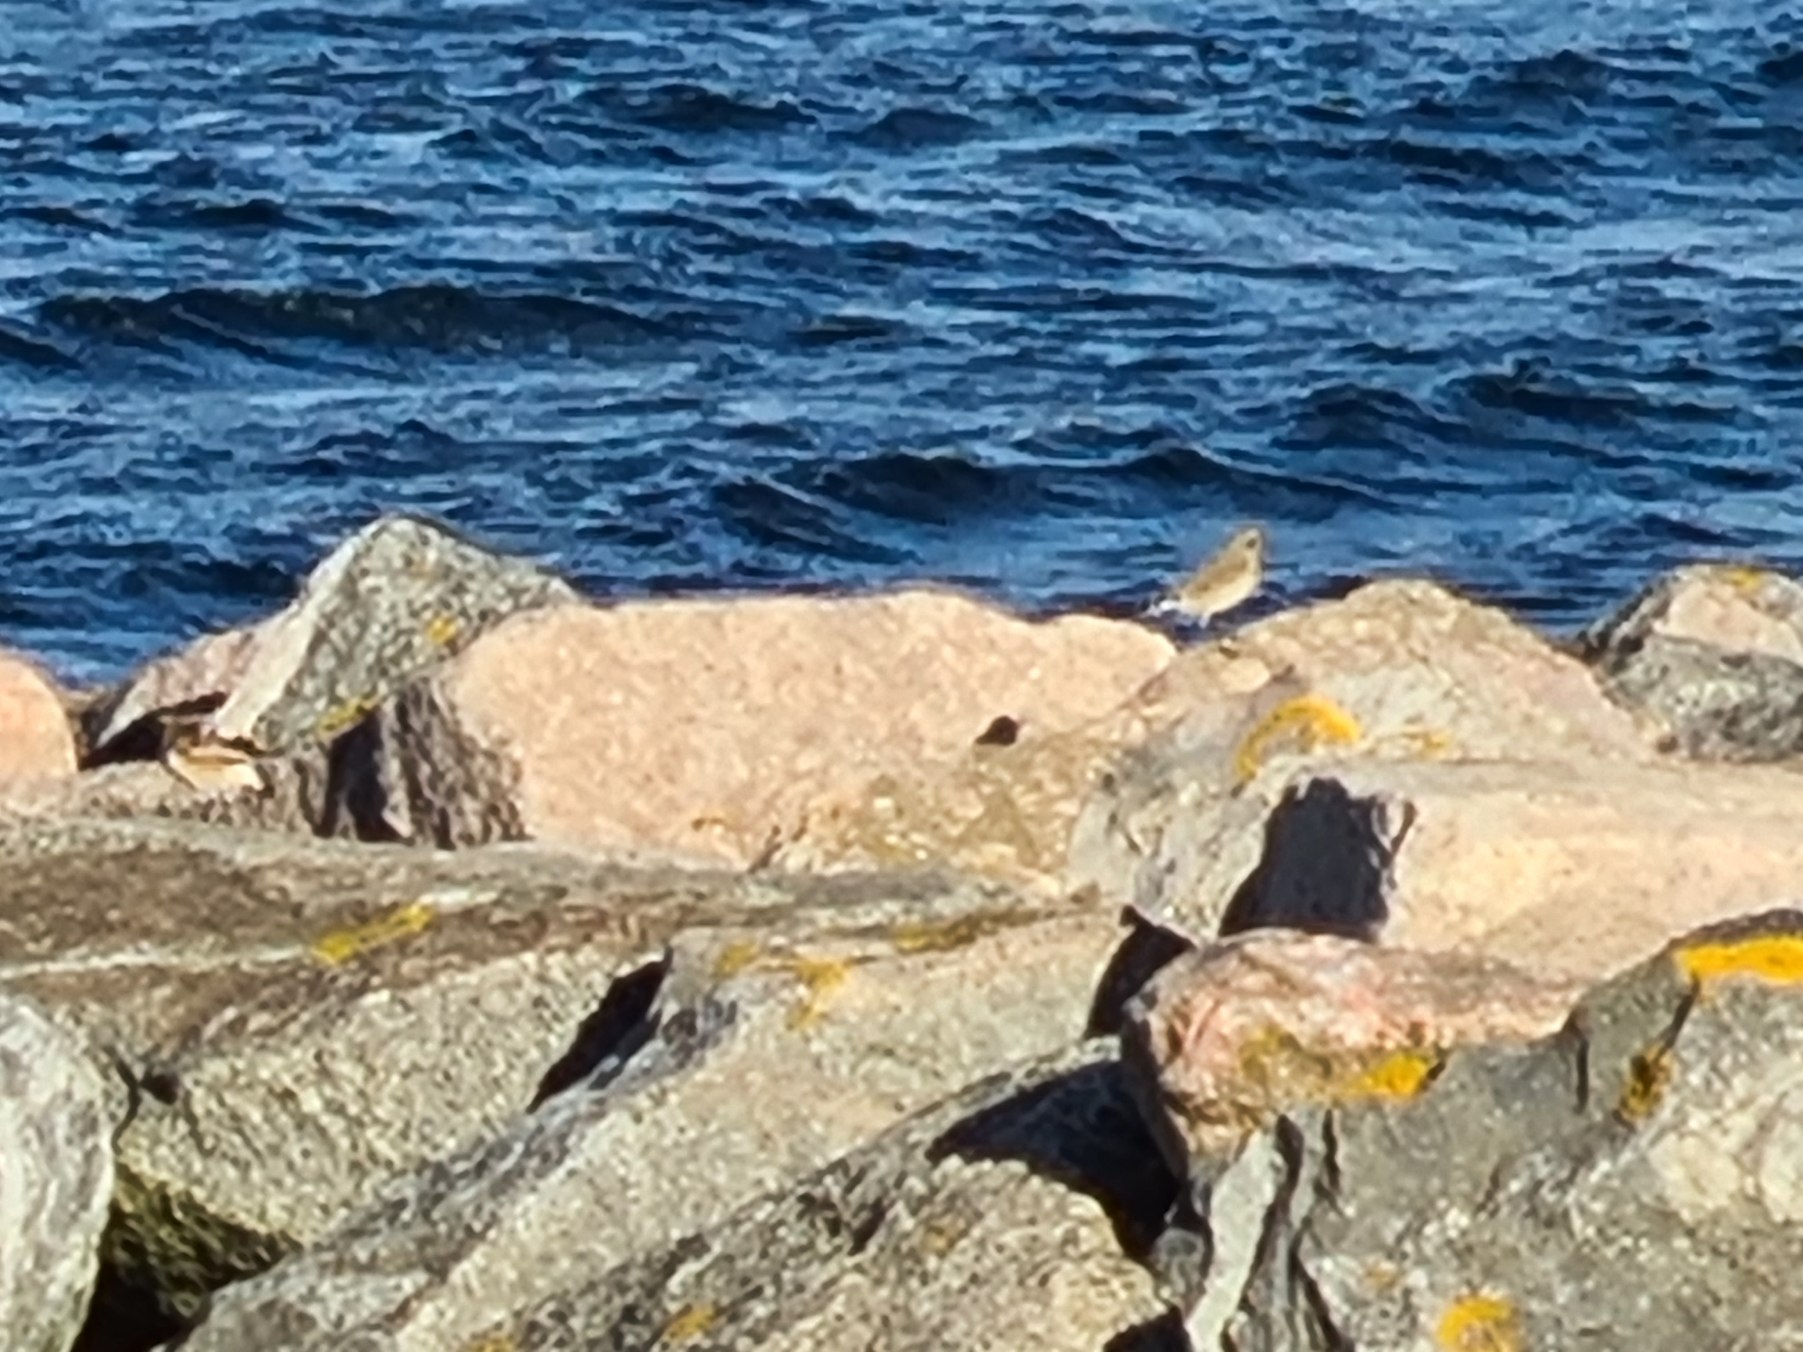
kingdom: Animalia
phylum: Chordata
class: Aves
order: Passeriformes
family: Muscicapidae
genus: Oenanthe
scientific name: Oenanthe oenanthe
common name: Stenpikker
